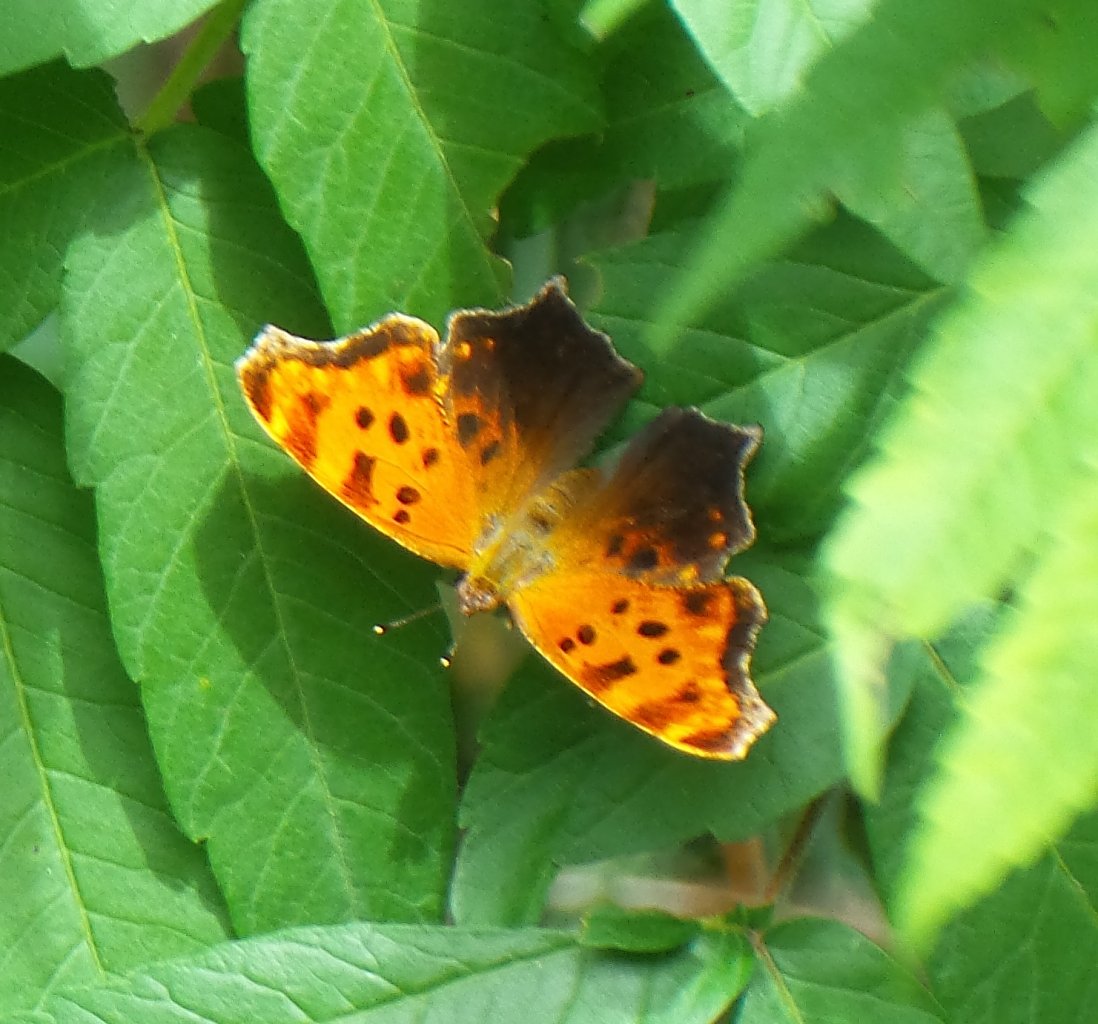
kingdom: Animalia
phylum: Arthropoda
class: Insecta
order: Lepidoptera
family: Nymphalidae
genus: Polygonia
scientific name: Polygonia comma
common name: Eastern Comma
